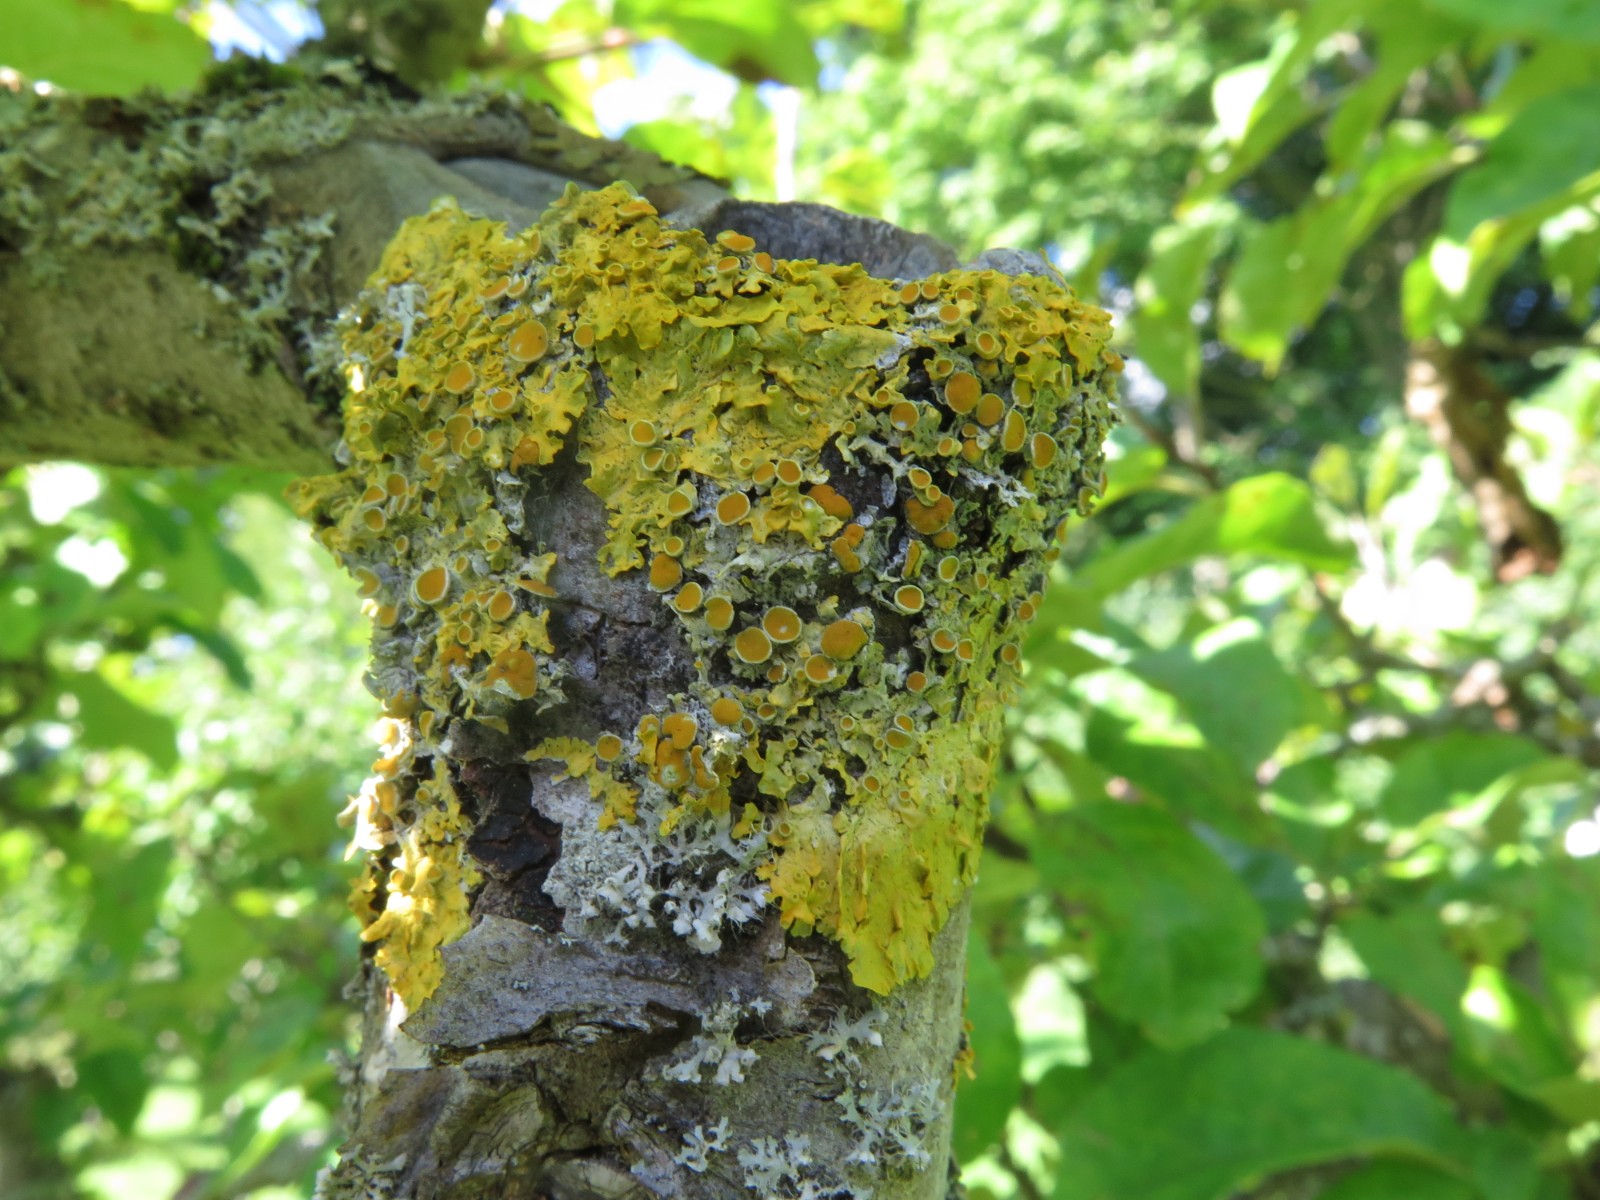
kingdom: Fungi
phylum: Ascomycota
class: Lecanoromycetes
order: Teloschistales
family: Teloschistaceae
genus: Xanthoria
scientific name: Xanthoria parietina
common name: almindelig væggelav
